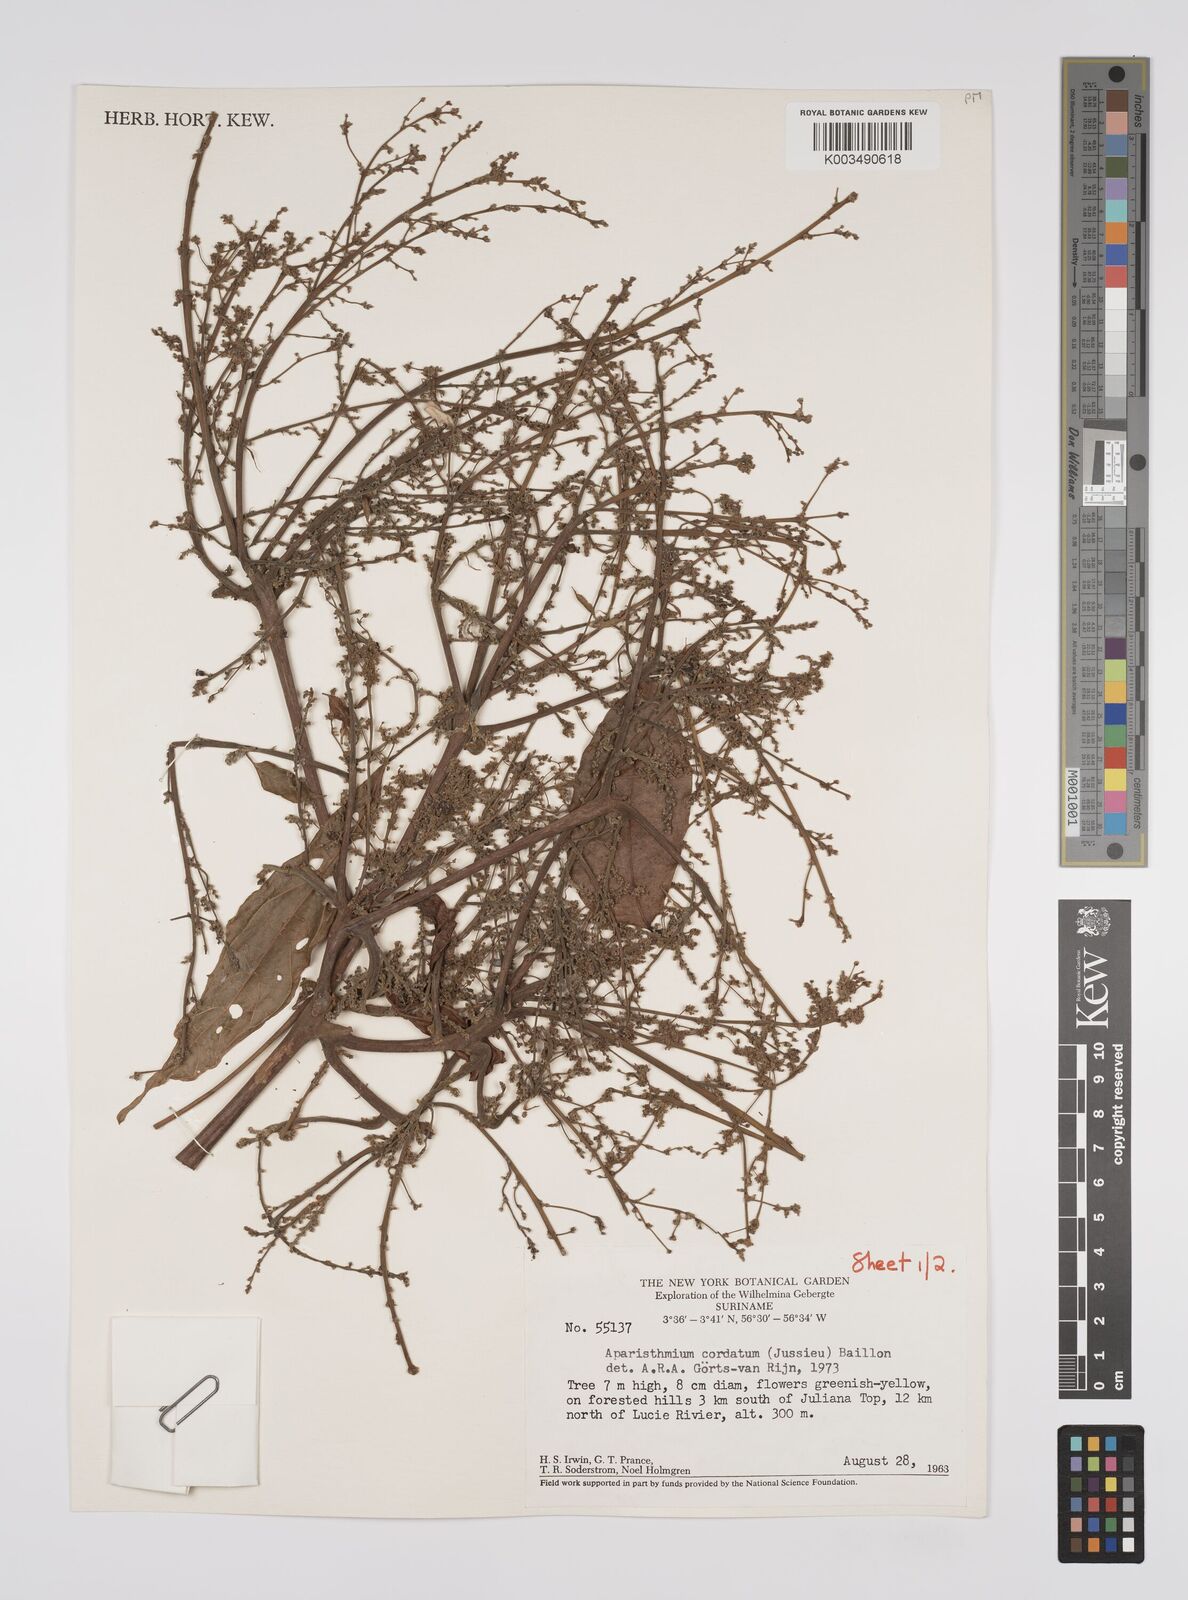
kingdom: Plantae
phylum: Tracheophyta
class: Magnoliopsida
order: Malpighiales
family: Euphorbiaceae
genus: Aparisthmium
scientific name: Aparisthmium cordatum
